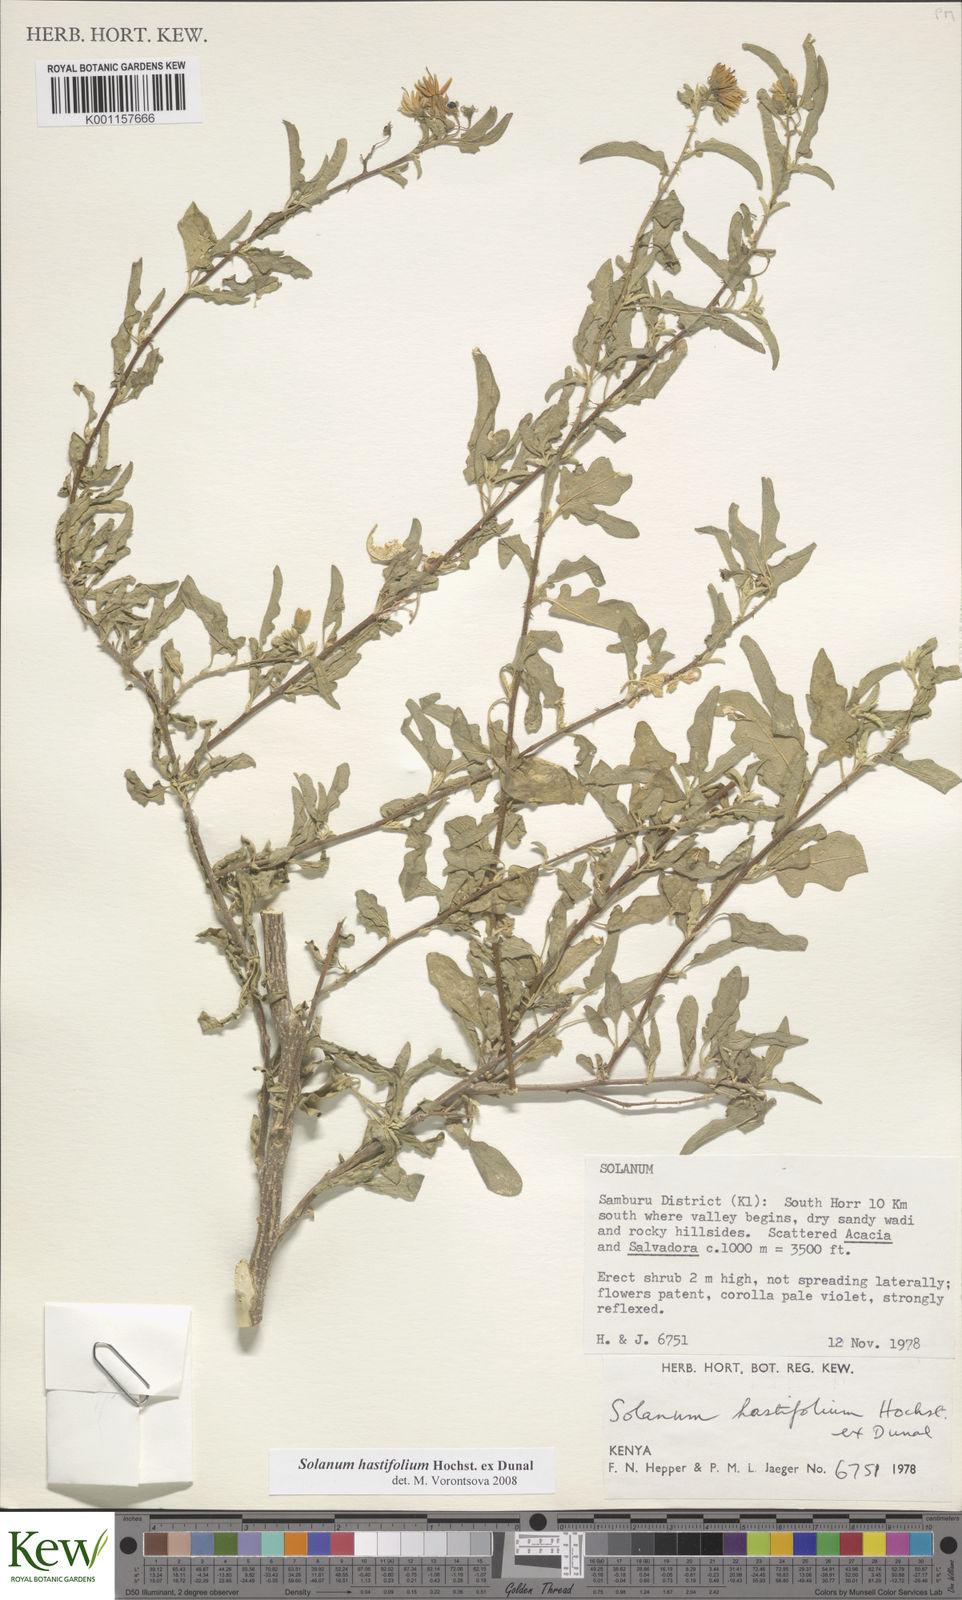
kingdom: Plantae
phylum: Tracheophyta
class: Magnoliopsida
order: Solanales
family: Solanaceae
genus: Solanum
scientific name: Solanum hastifolium
